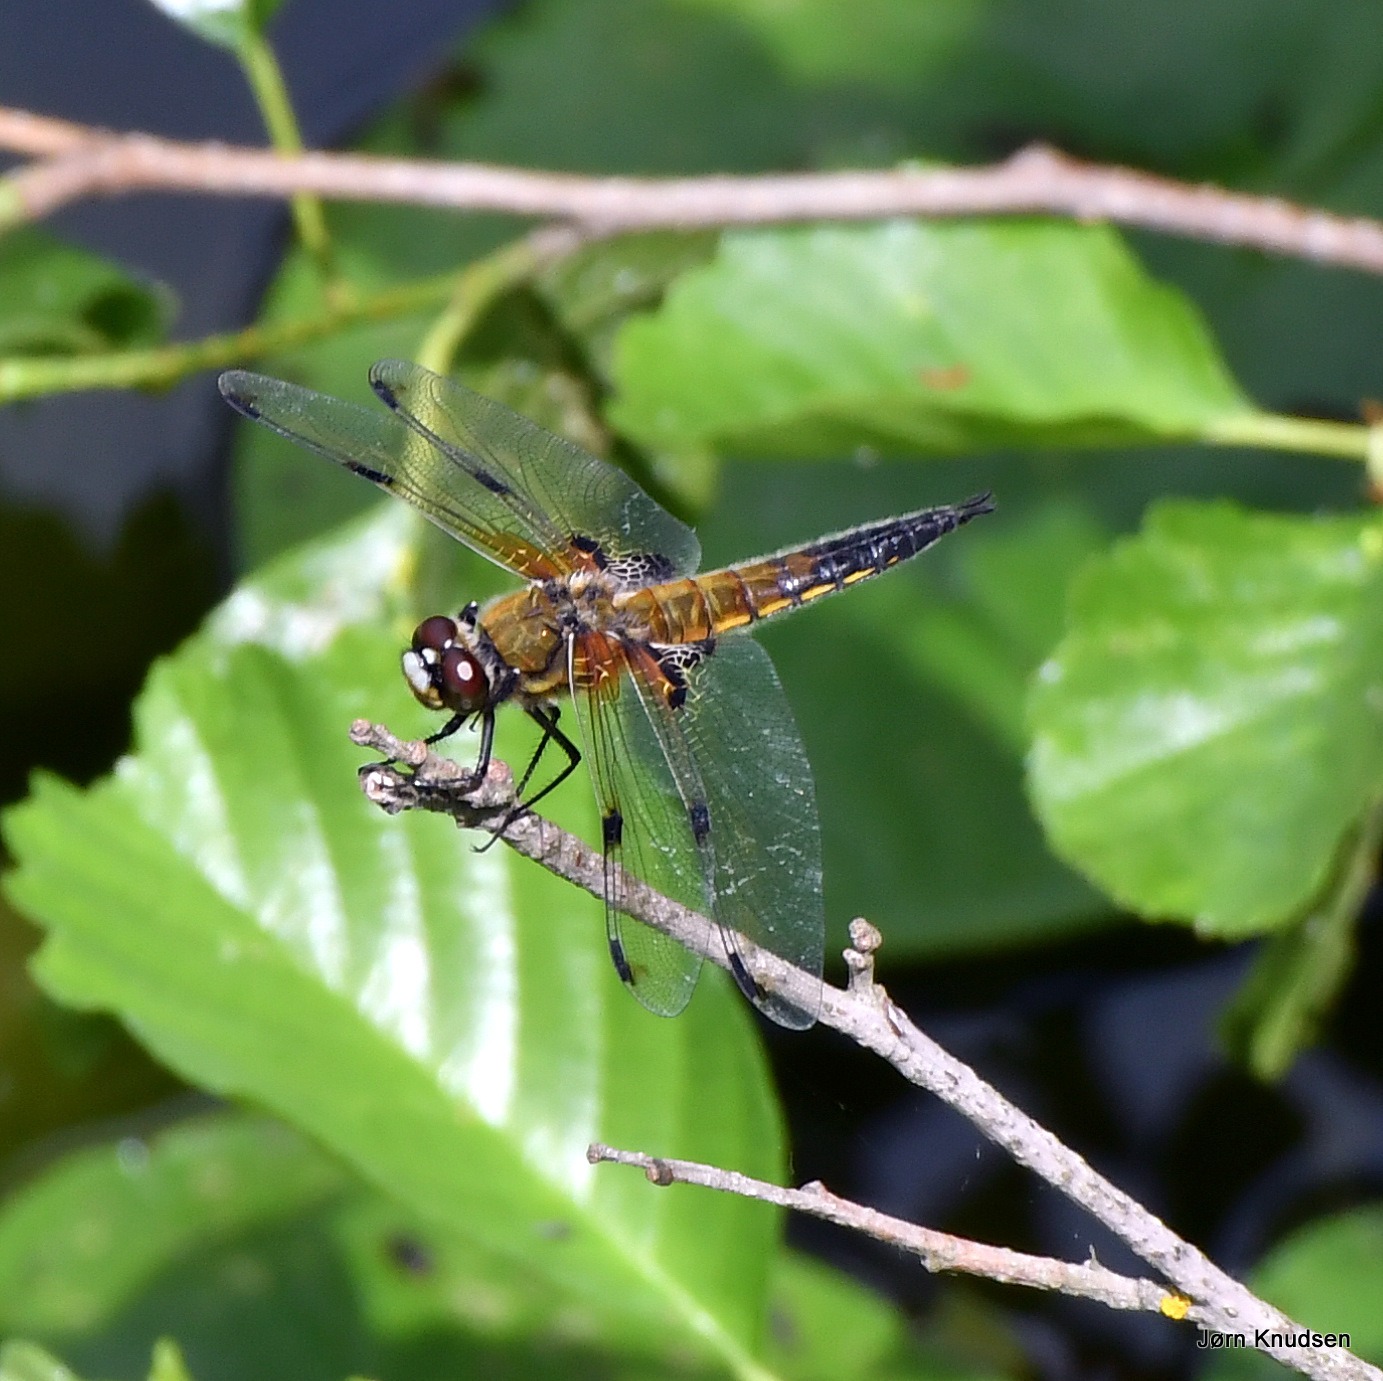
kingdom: Animalia
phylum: Arthropoda
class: Insecta
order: Odonata
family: Libellulidae
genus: Libellula
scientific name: Libellula quadrimaculata
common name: Fireplettet libel
